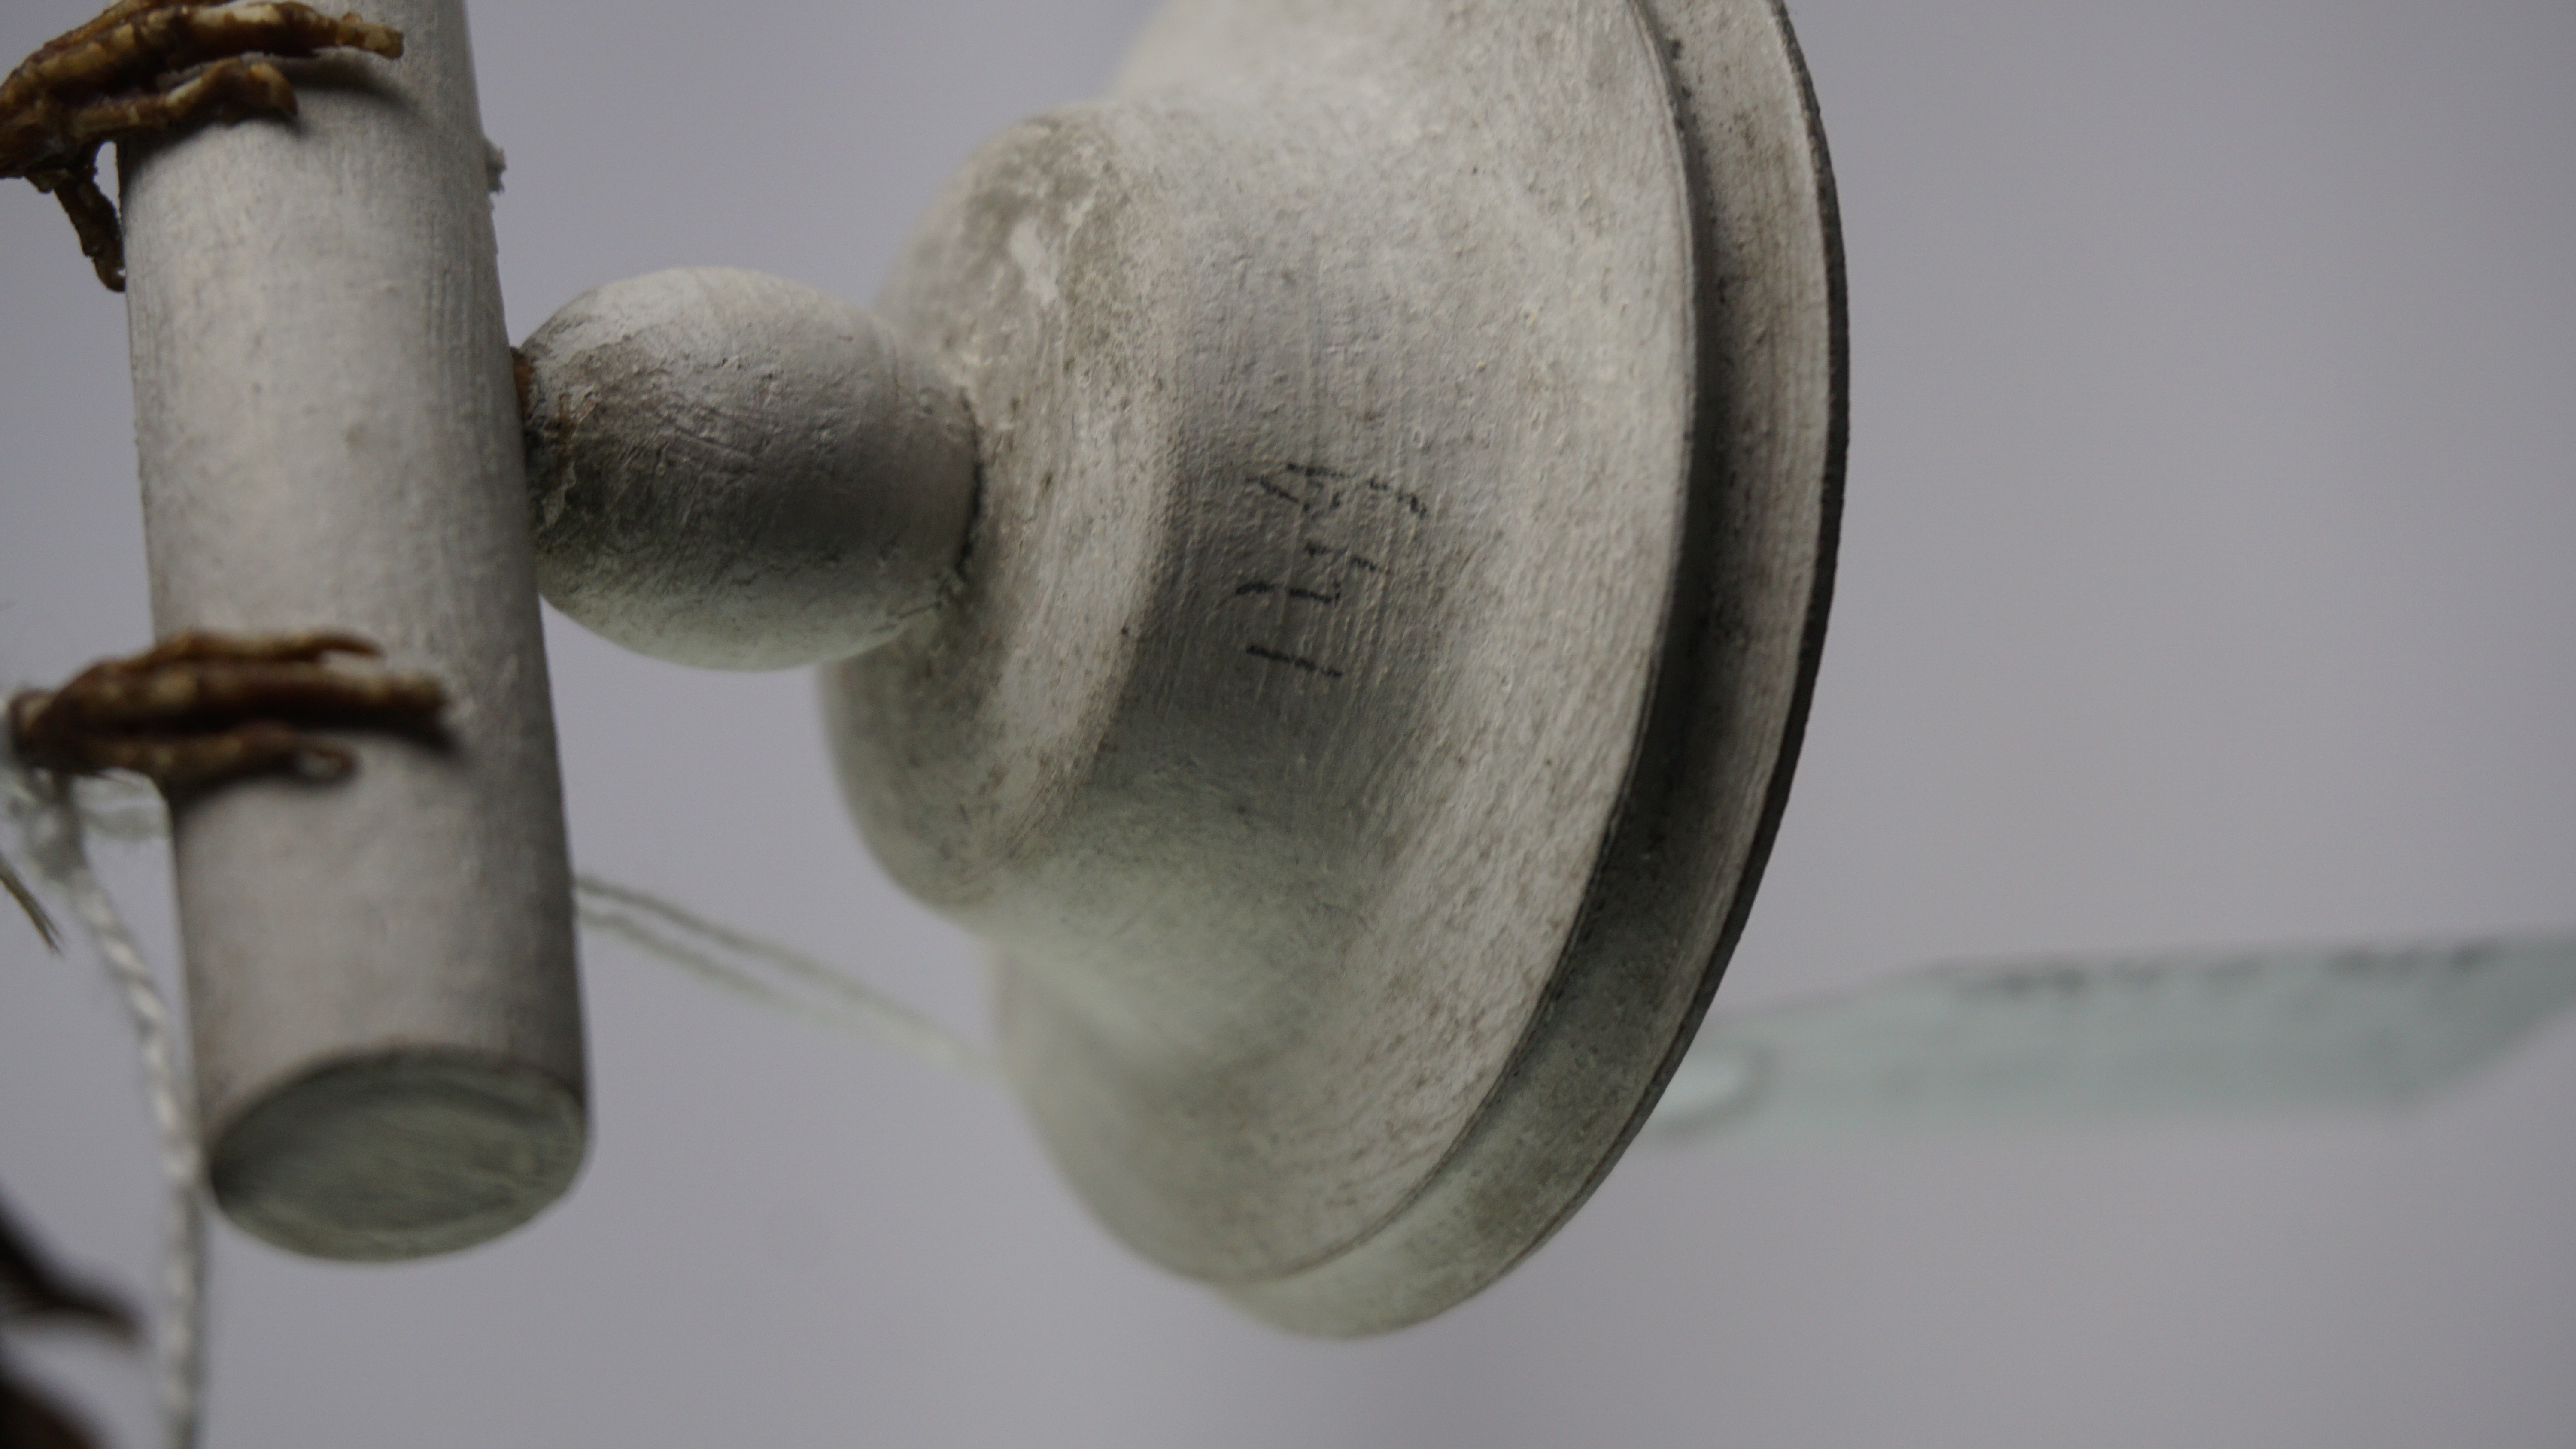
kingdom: Animalia
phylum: Chordata
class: Aves
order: Caprimulgiformes
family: Caprimulgidae
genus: Setopagis
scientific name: Setopagis parvula
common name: Little nightjar
